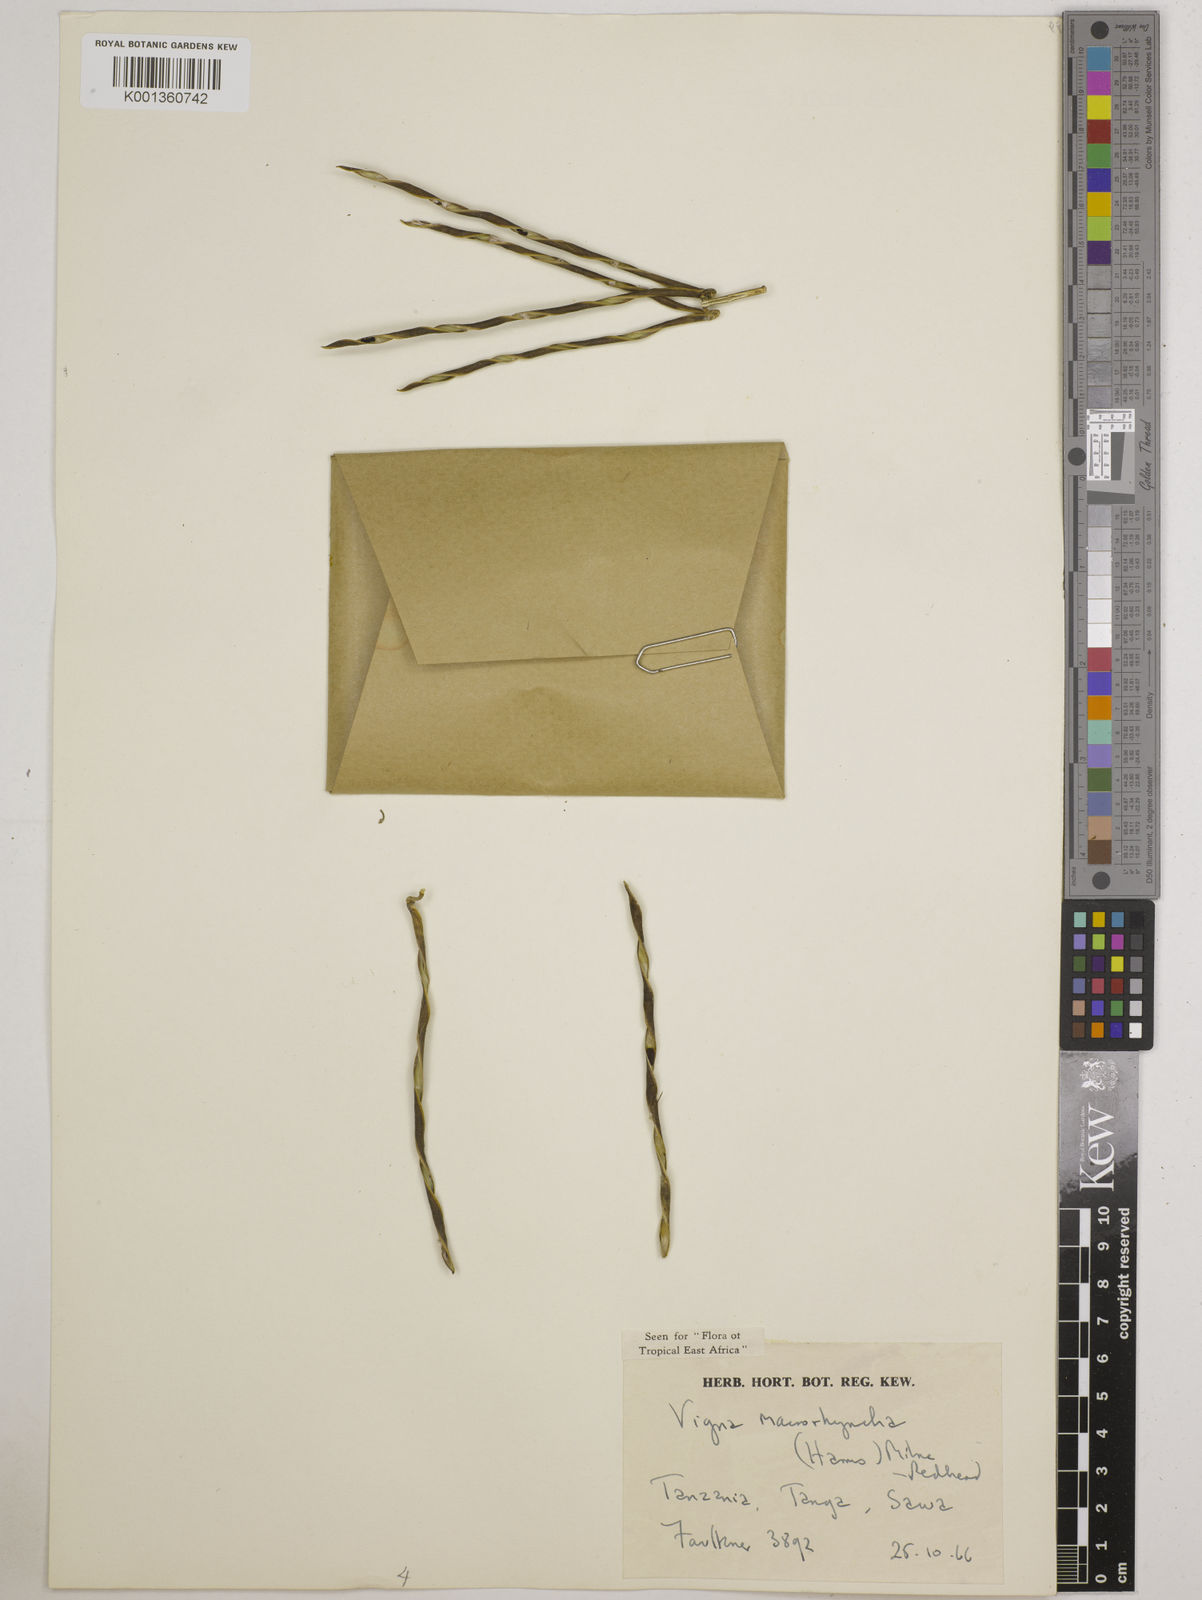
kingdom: Plantae
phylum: Tracheophyta
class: Magnoliopsida
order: Fabales
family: Fabaceae
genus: Wajira
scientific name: Wajira grahamiana
